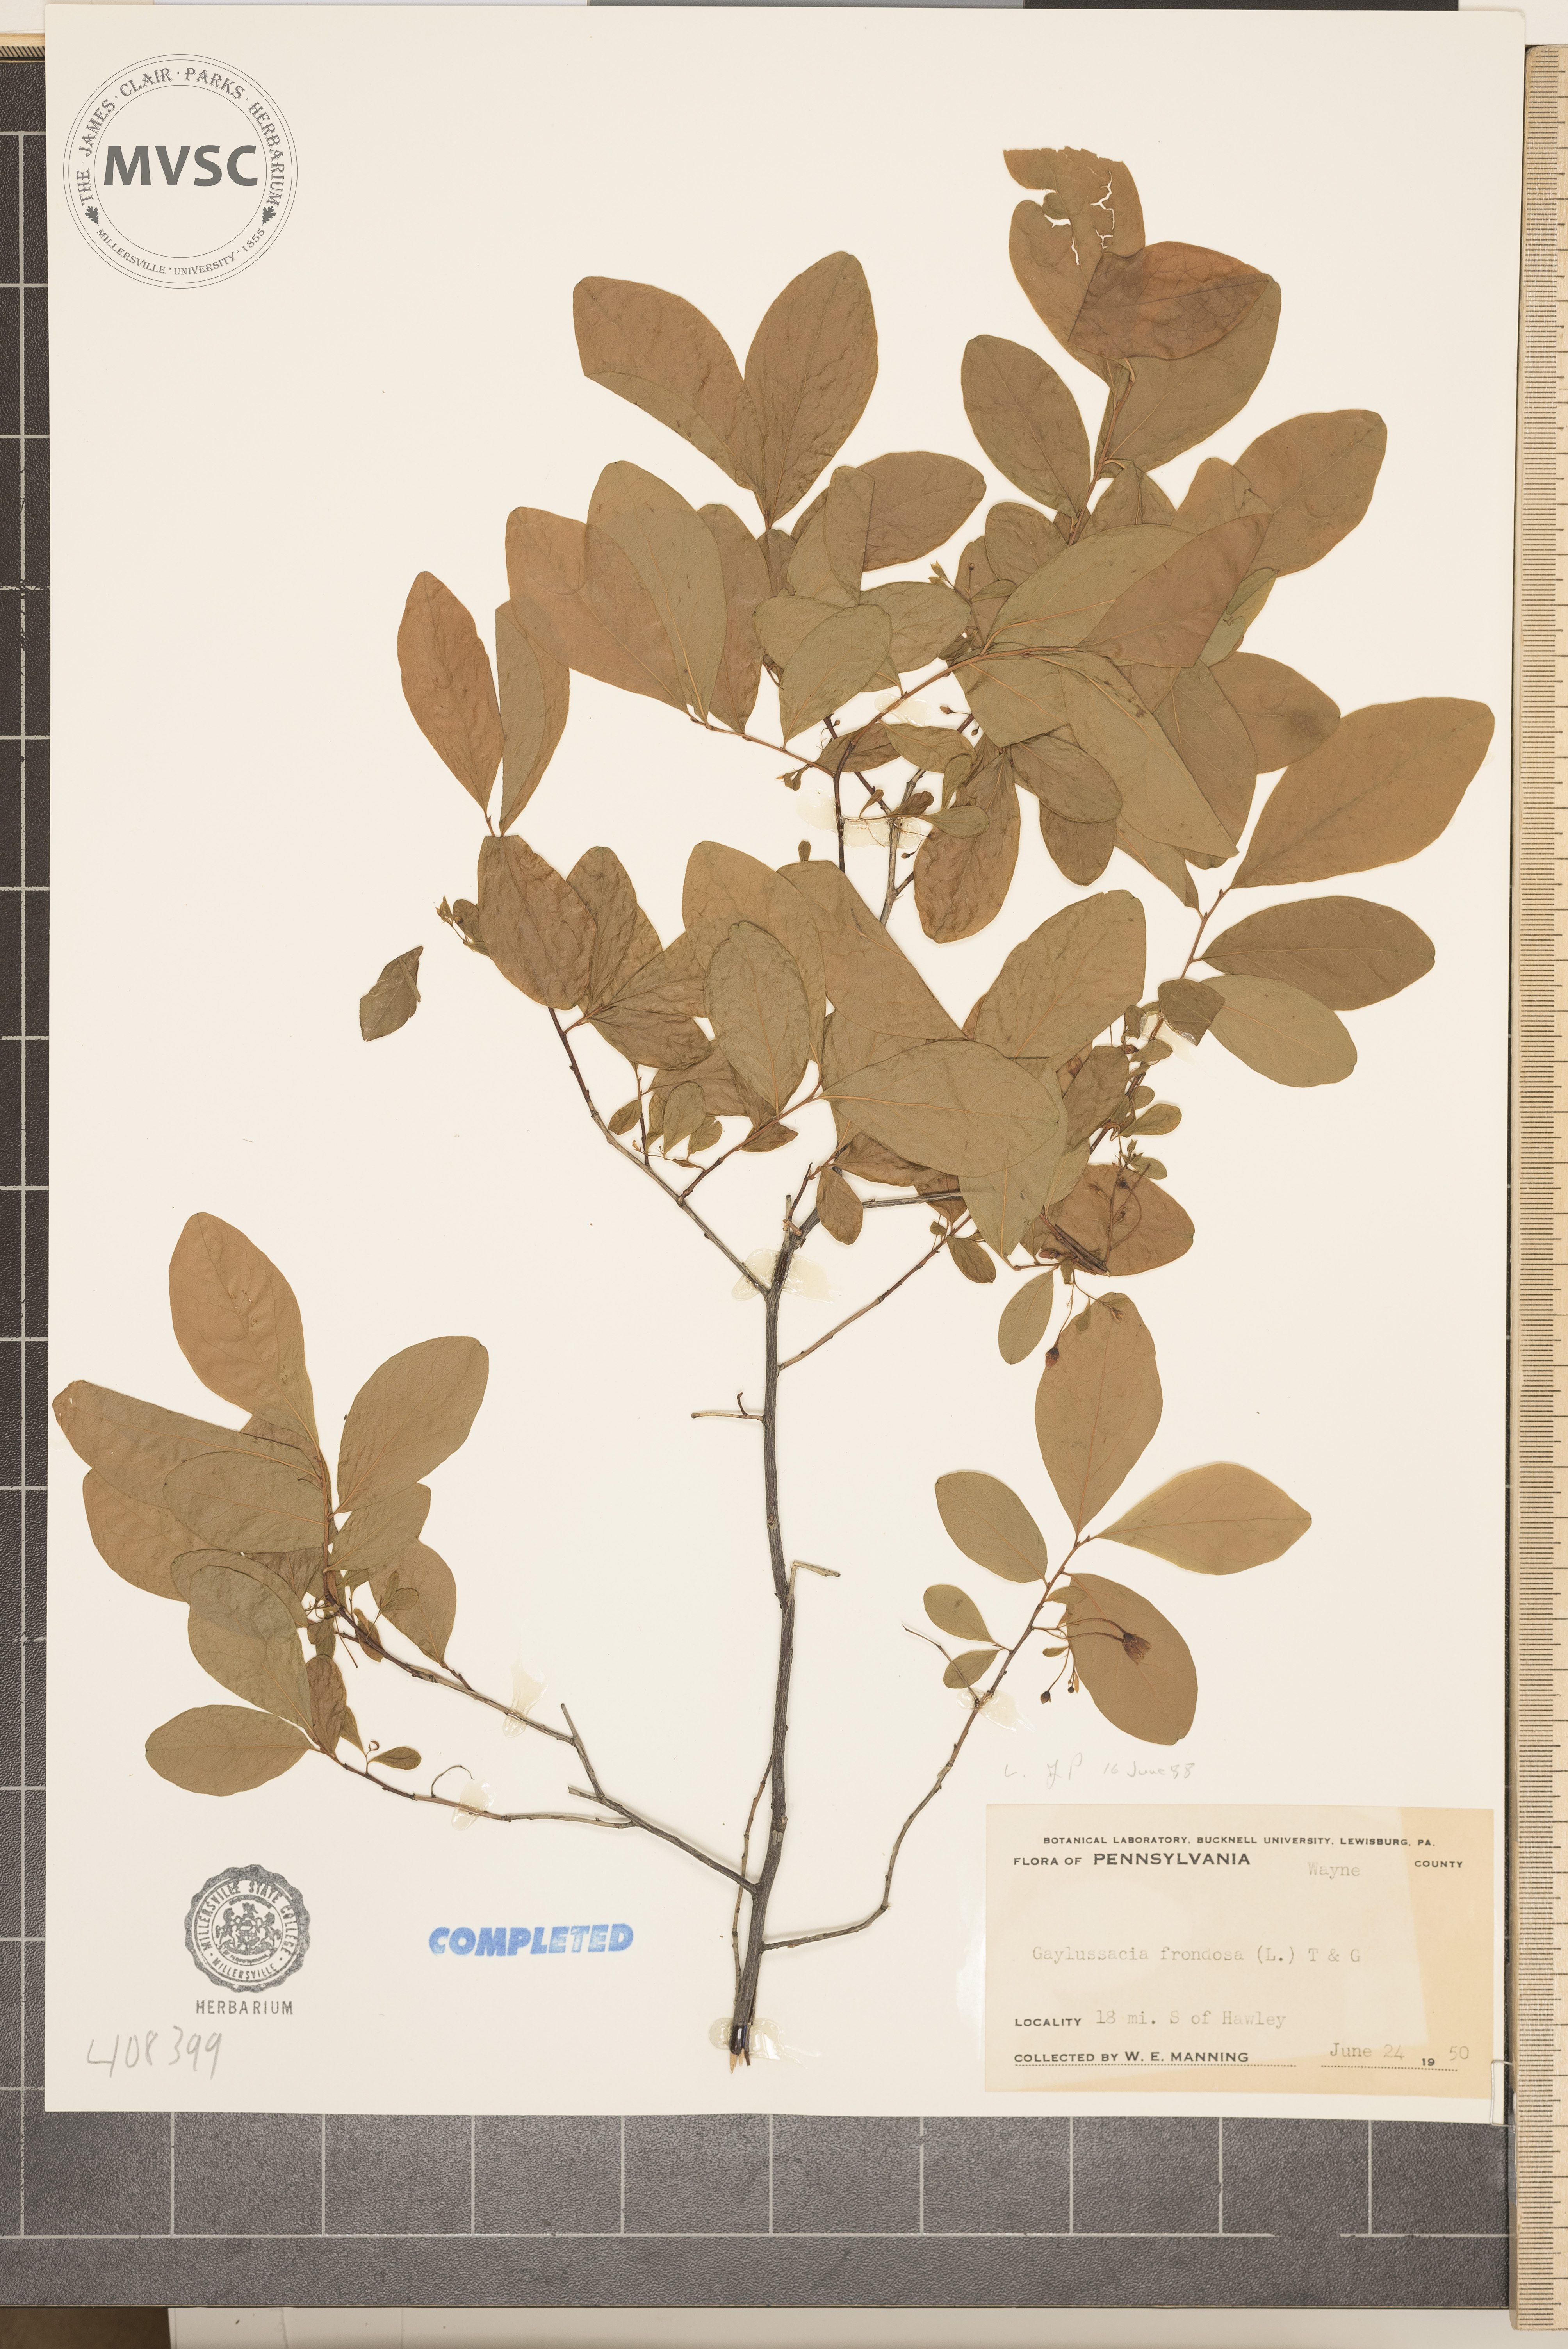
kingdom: Plantae
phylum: Tracheophyta
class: Magnoliopsida
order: Ericales
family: Ericaceae
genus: Gaylussacia
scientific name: Gaylussacia frondosa
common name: Dangleberry
